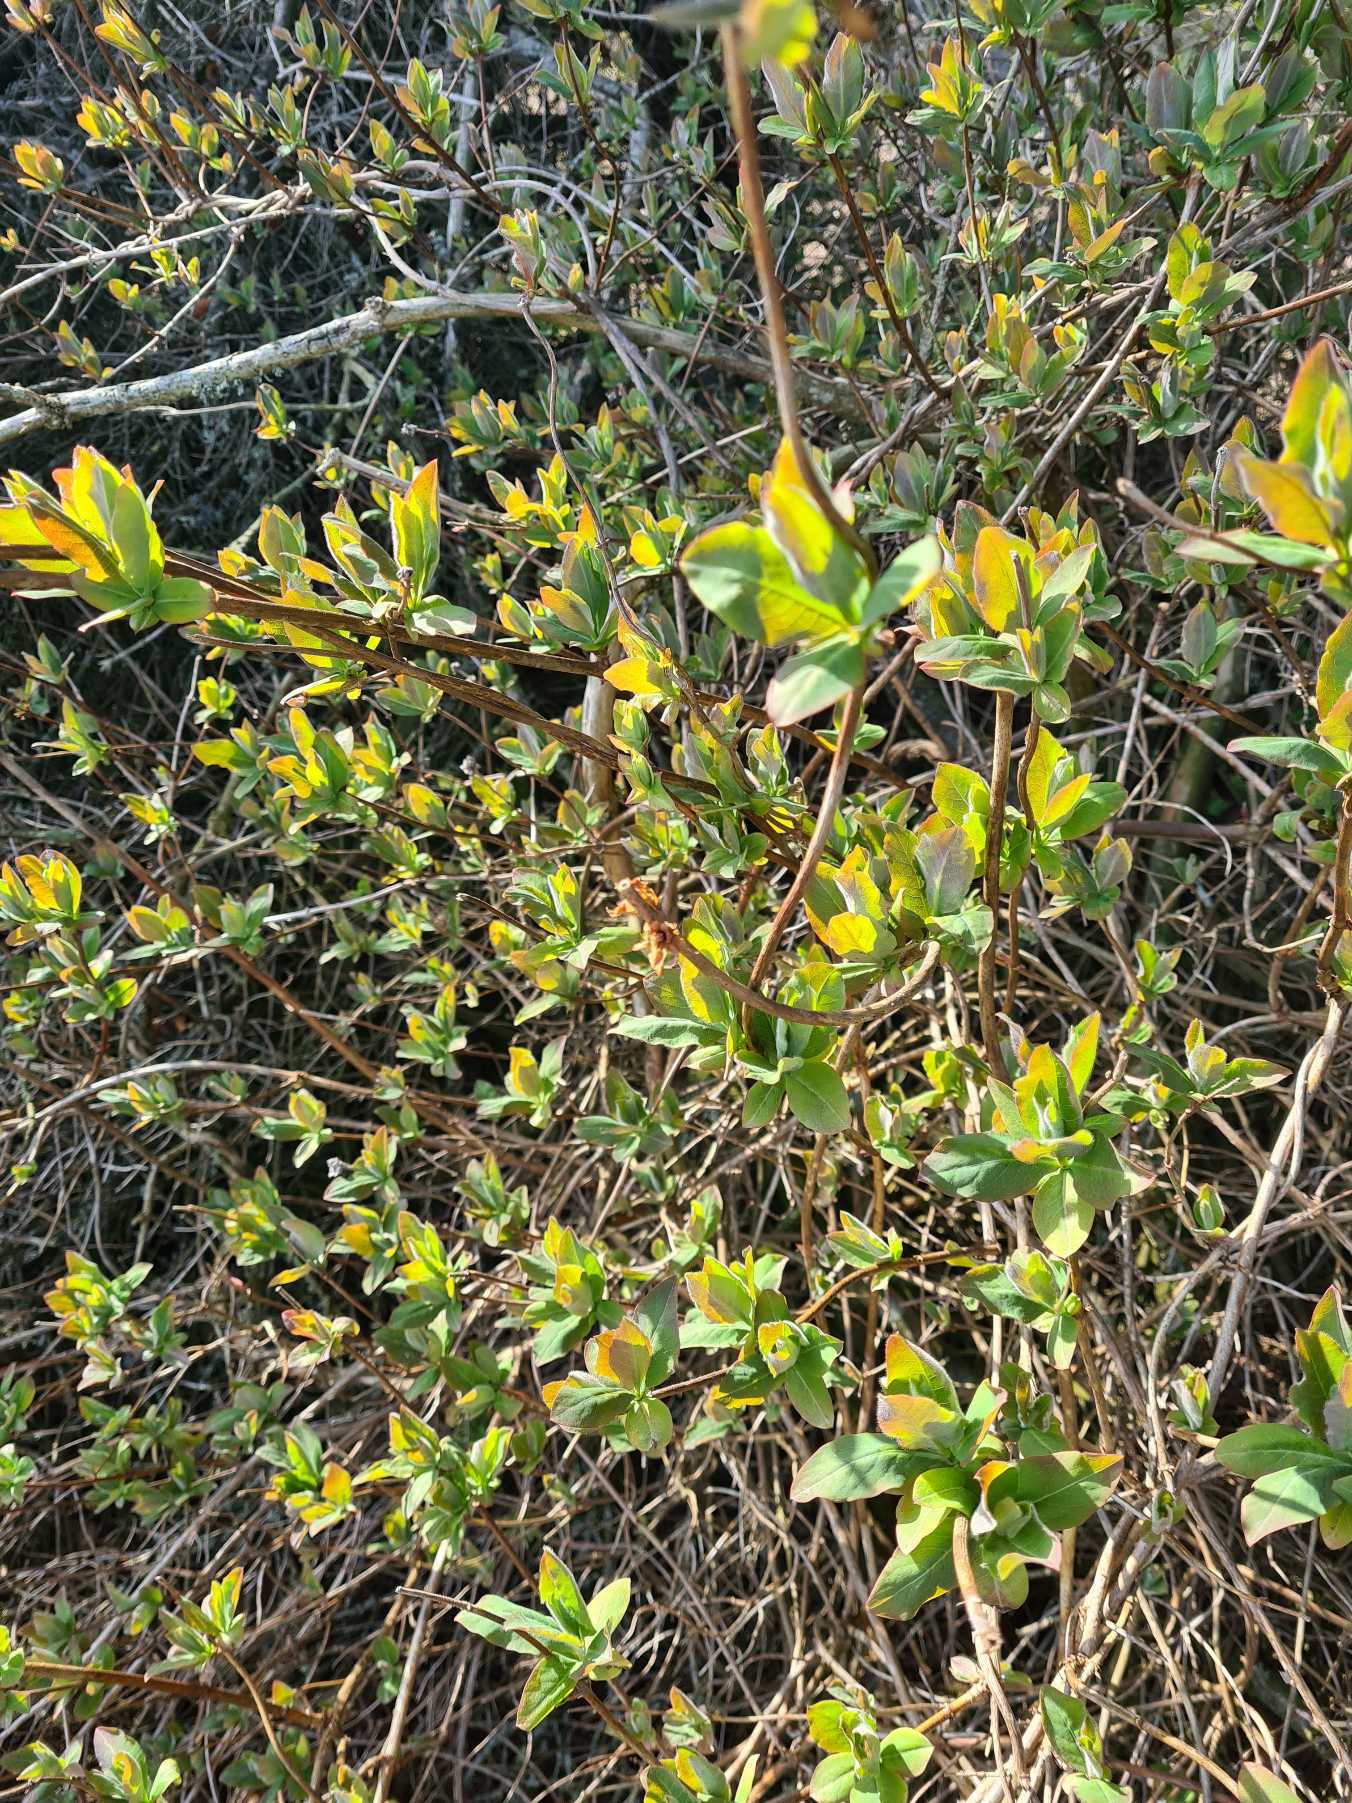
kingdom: Plantae
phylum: Tracheophyta
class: Magnoliopsida
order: Dipsacales
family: Caprifoliaceae
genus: Lonicera
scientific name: Lonicera periclymenum
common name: Almindelig gedeblad
